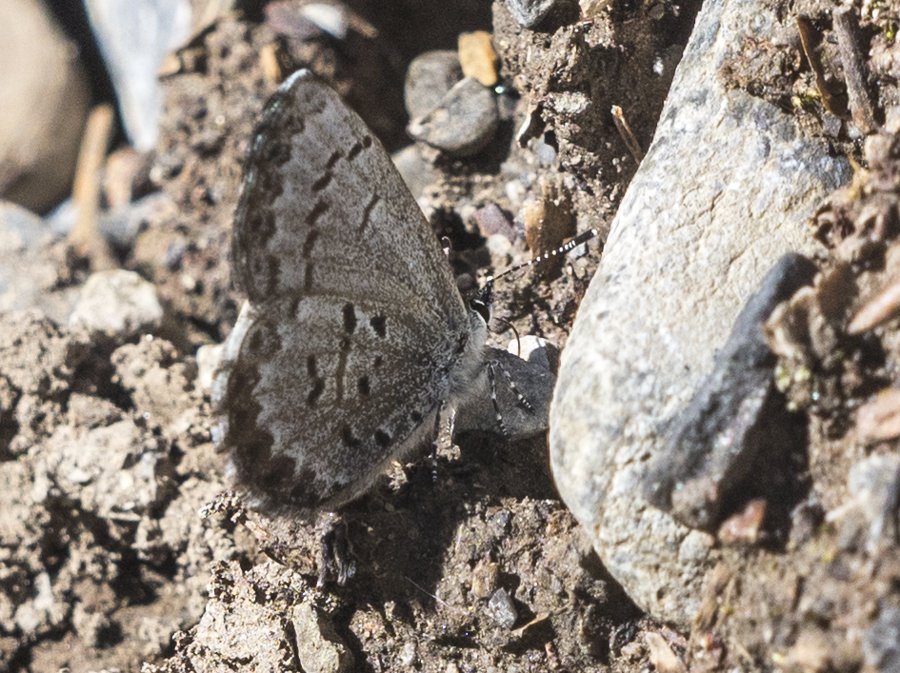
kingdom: Animalia
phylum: Arthropoda
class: Insecta
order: Lepidoptera
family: Lycaenidae
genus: Celastrina
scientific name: Celastrina lucia
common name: Northern Spring Azure
